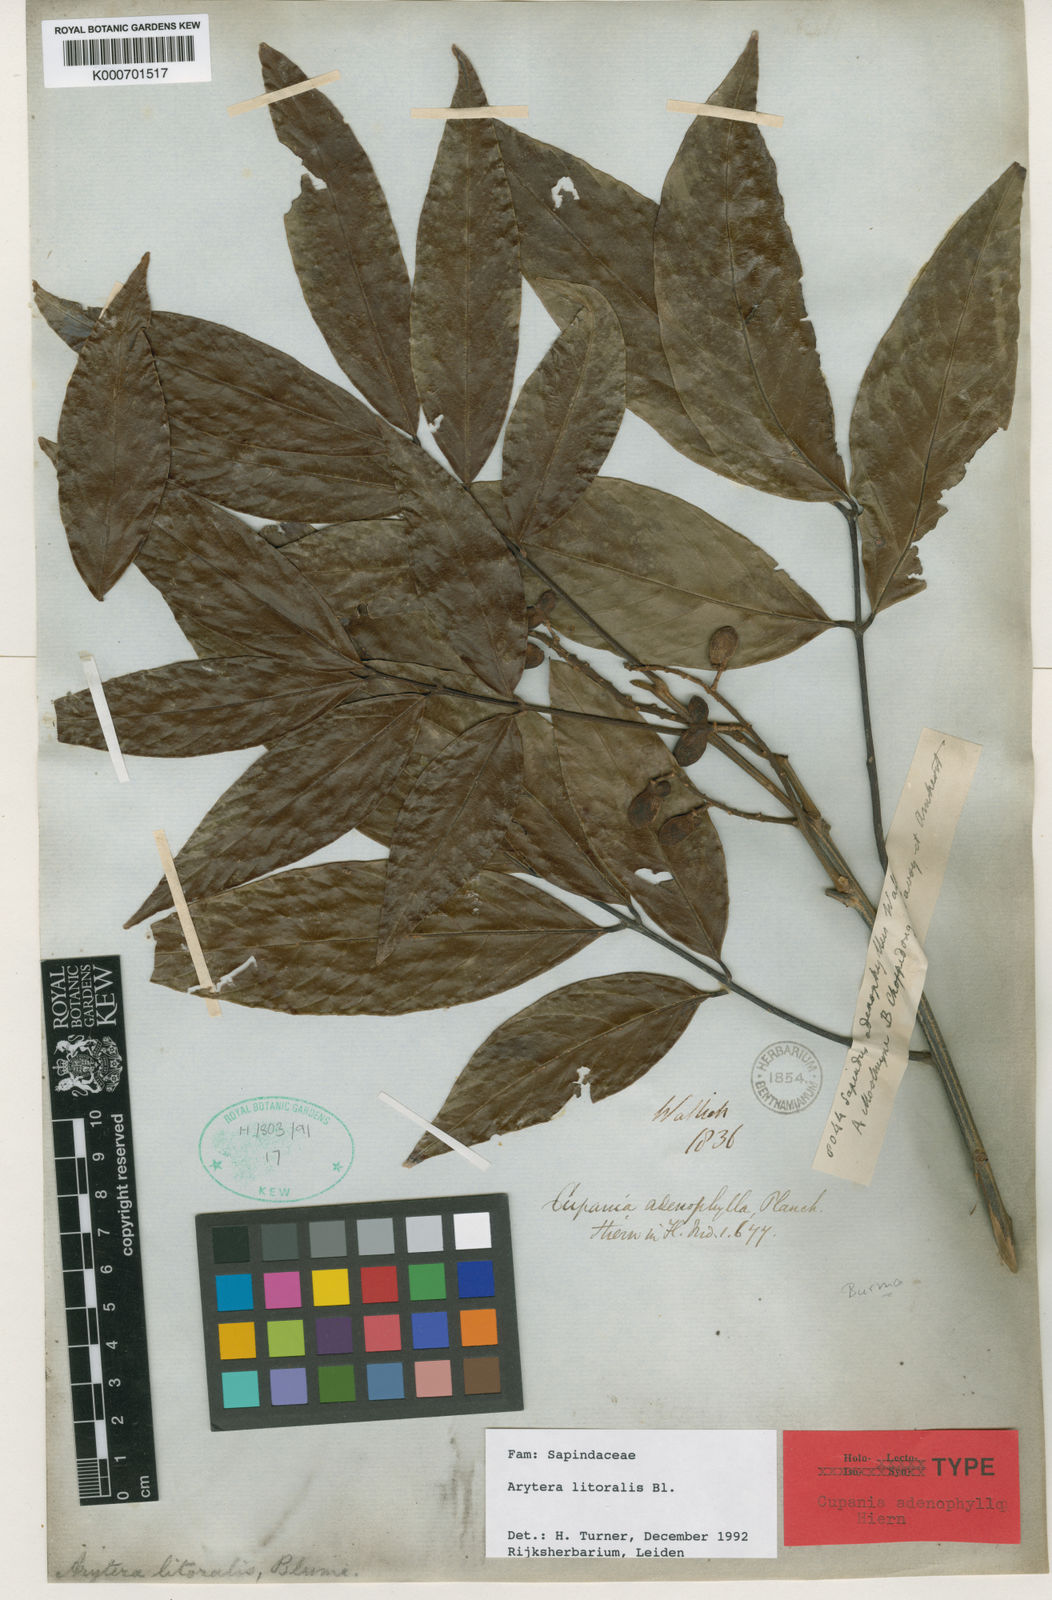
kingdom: Plantae
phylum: Tracheophyta
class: Magnoliopsida
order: Sapindales
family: Sapindaceae
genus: Arytera
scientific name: Arytera litoralis
